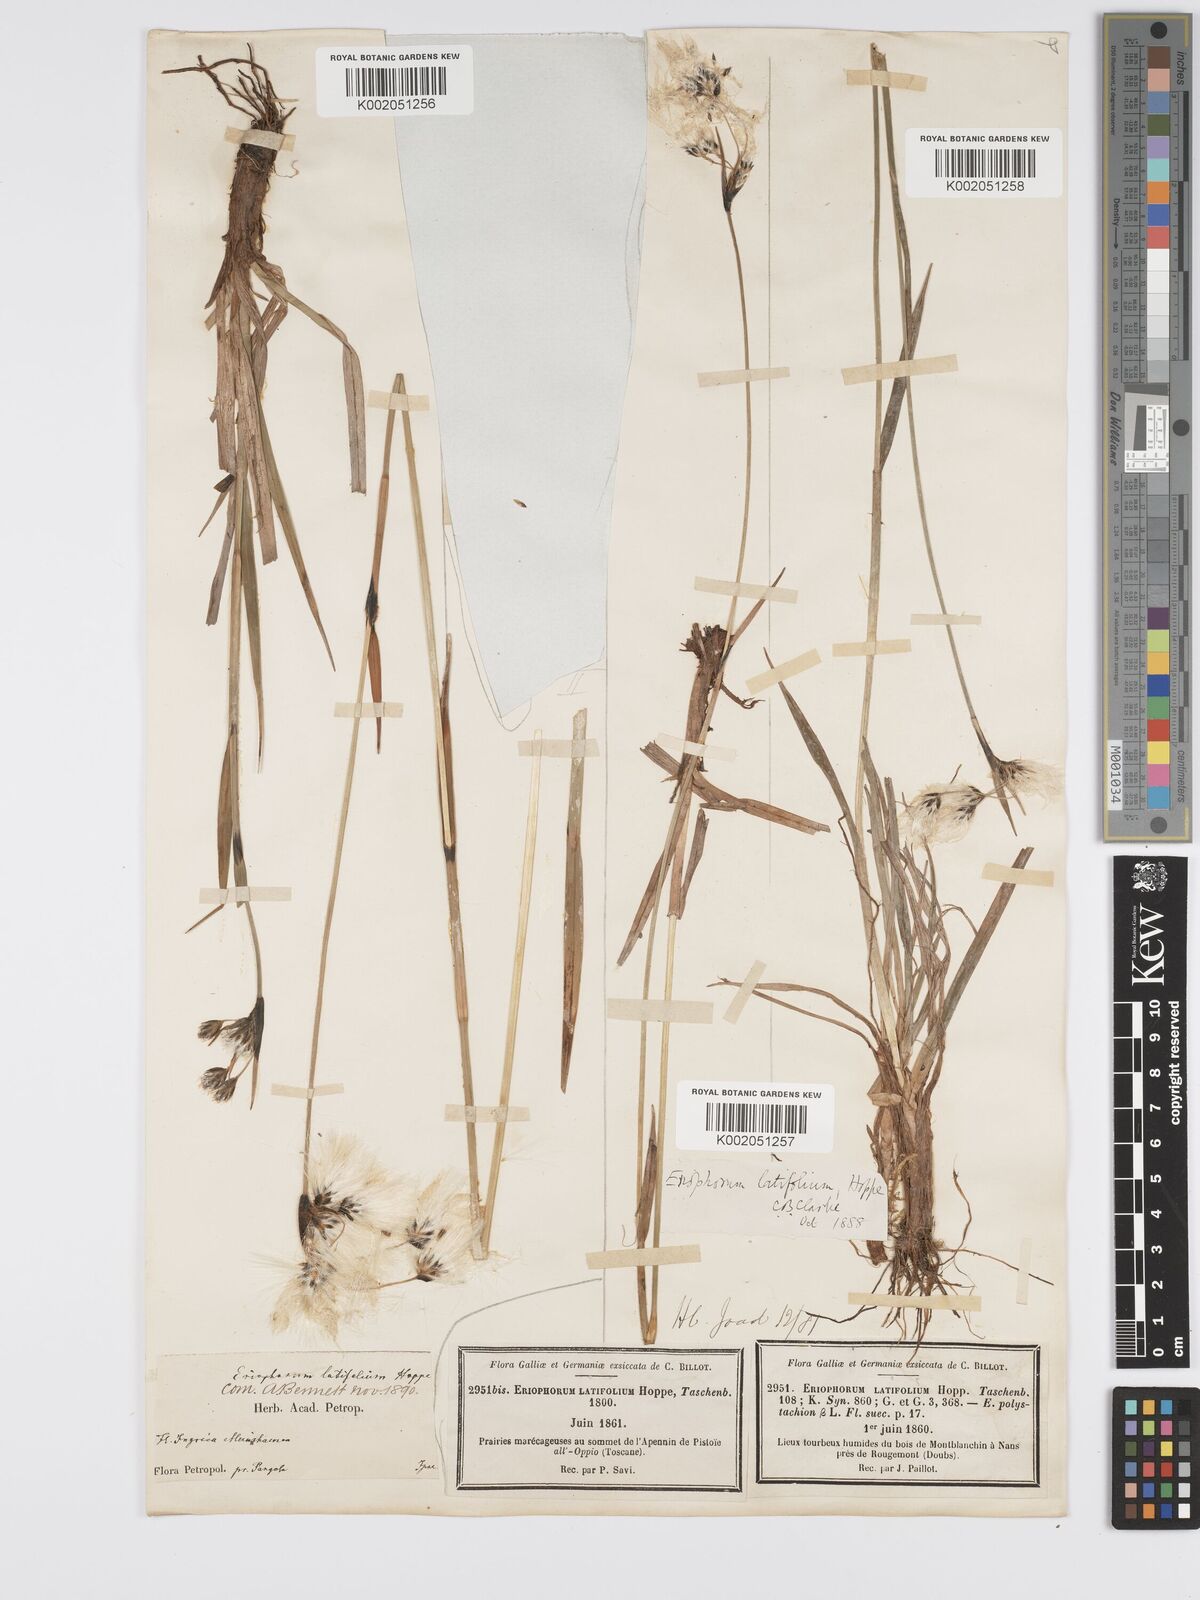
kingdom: Plantae
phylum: Tracheophyta
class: Liliopsida
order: Poales
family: Cyperaceae
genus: Eriophorum
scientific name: Eriophorum latifolium
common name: Broad-leaved cottongrass
